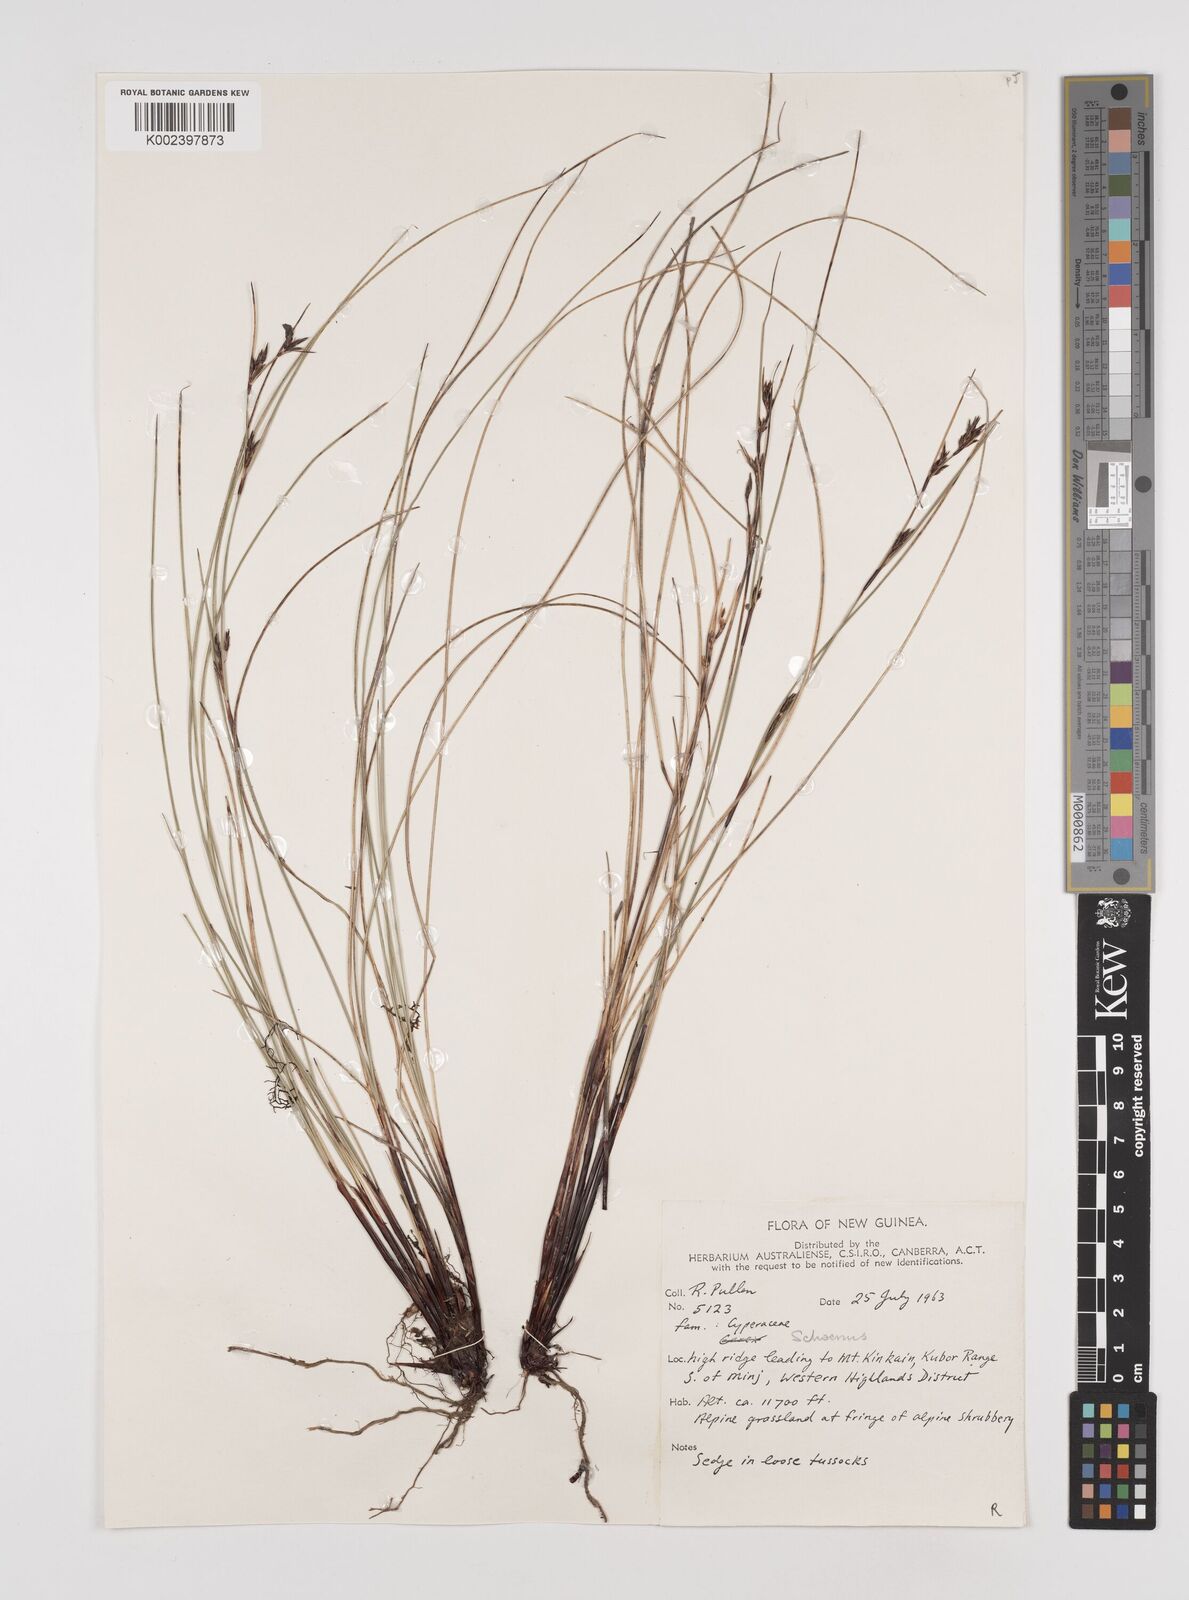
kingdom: Plantae
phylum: Tracheophyta
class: Liliopsida
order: Poales
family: Cyperaceae
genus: Schoenus
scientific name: Schoenus curvulus
